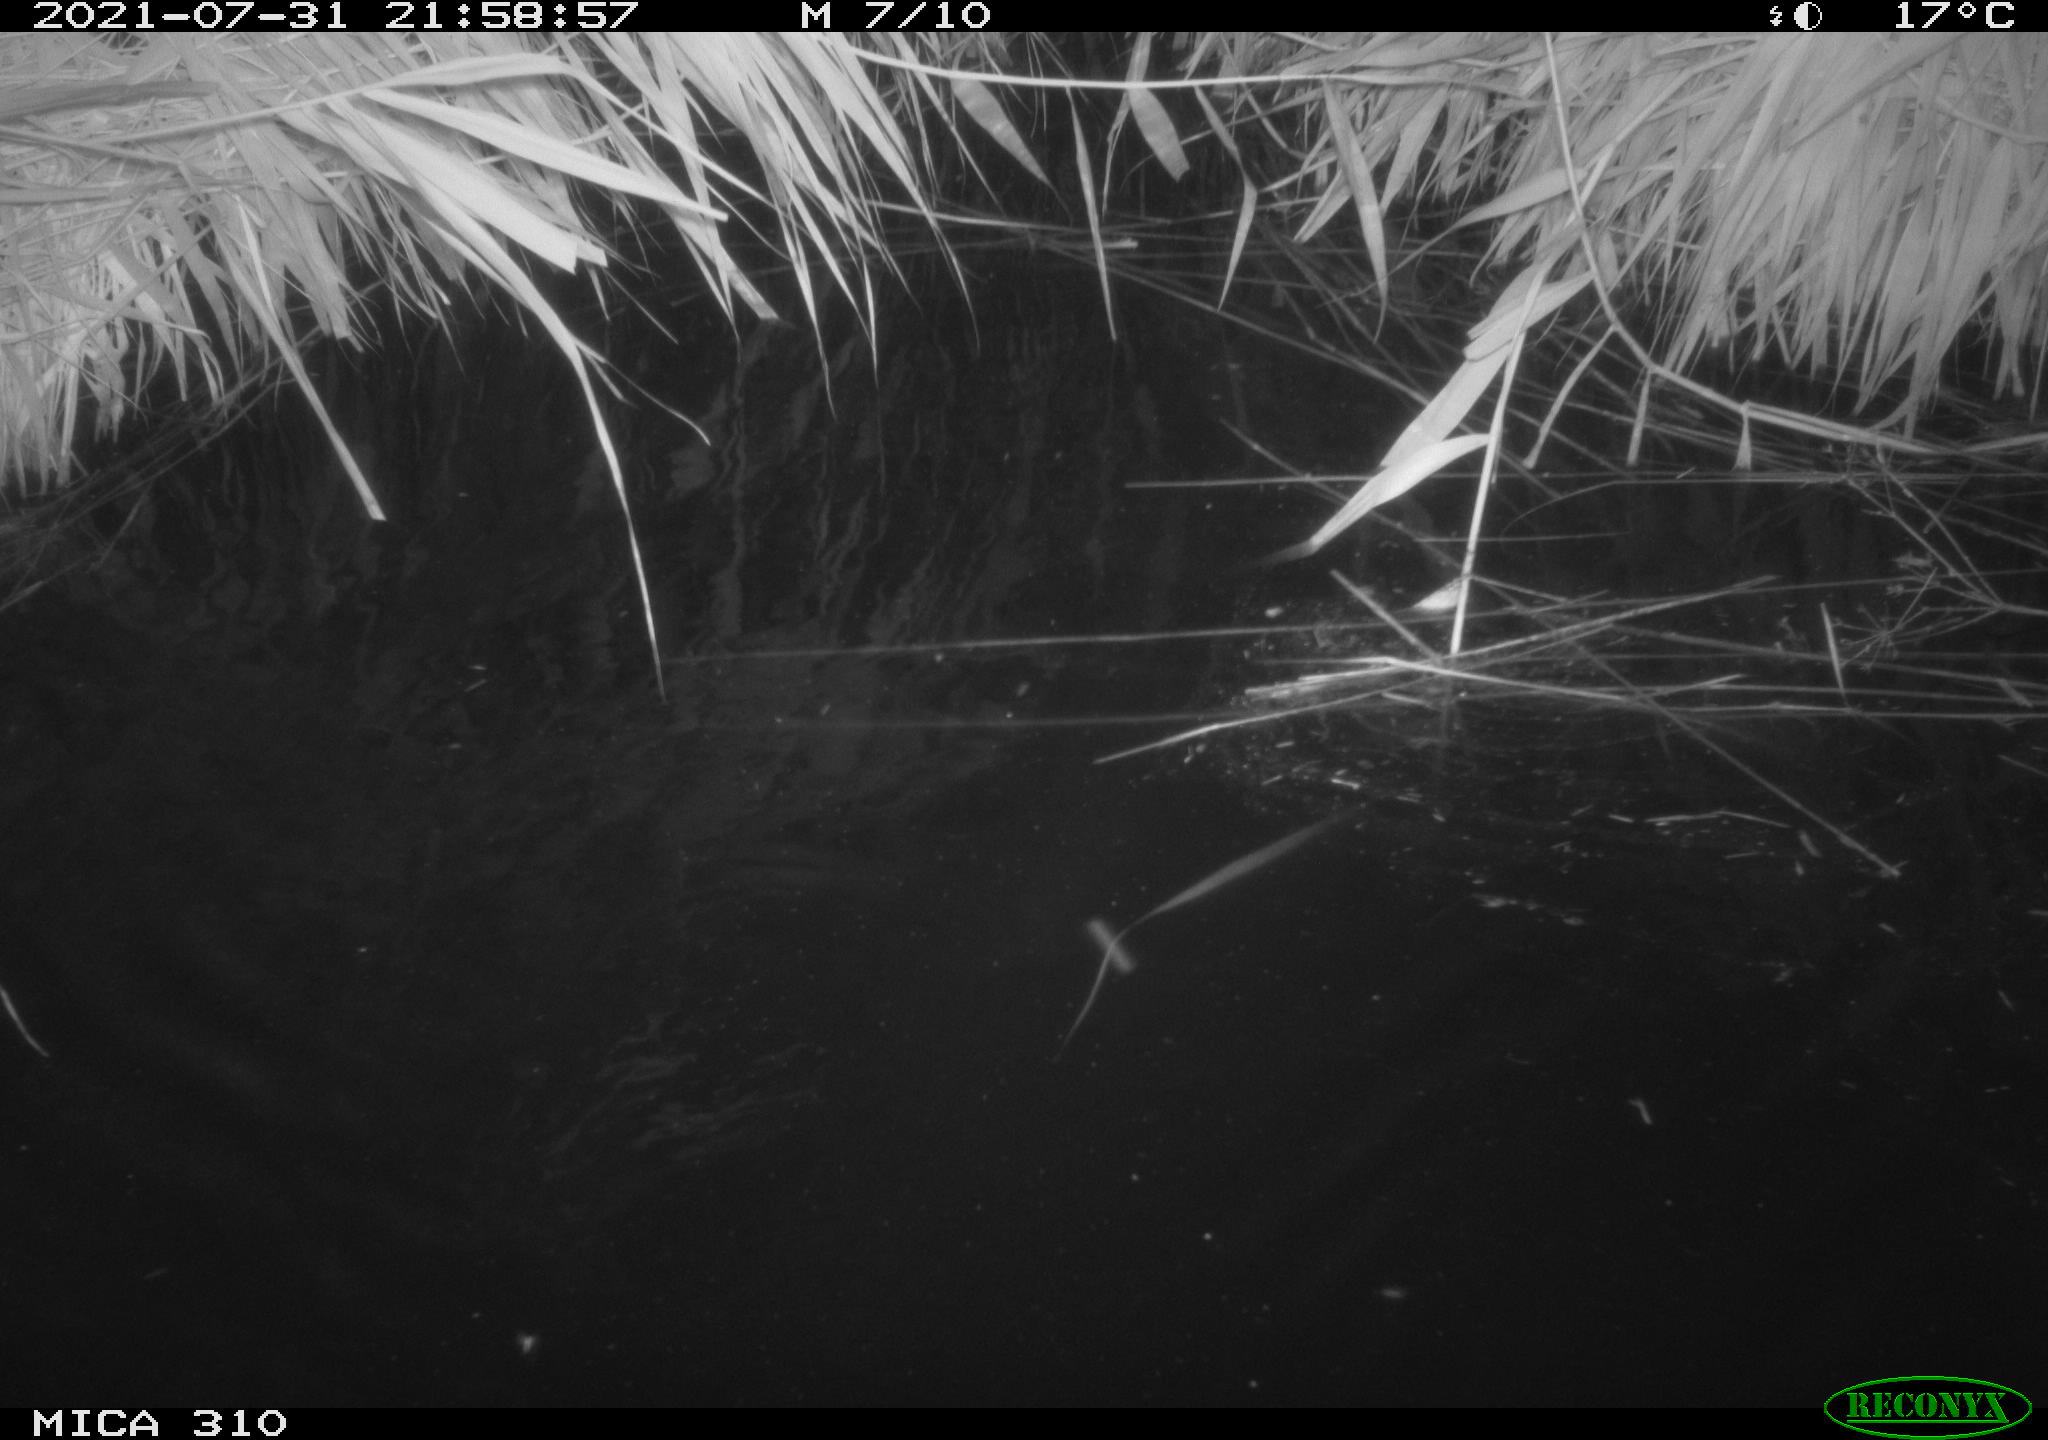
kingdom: Animalia
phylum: Chordata
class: Aves
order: Anseriformes
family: Anatidae
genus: Anas
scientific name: Anas platyrhynchos
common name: Mallard
